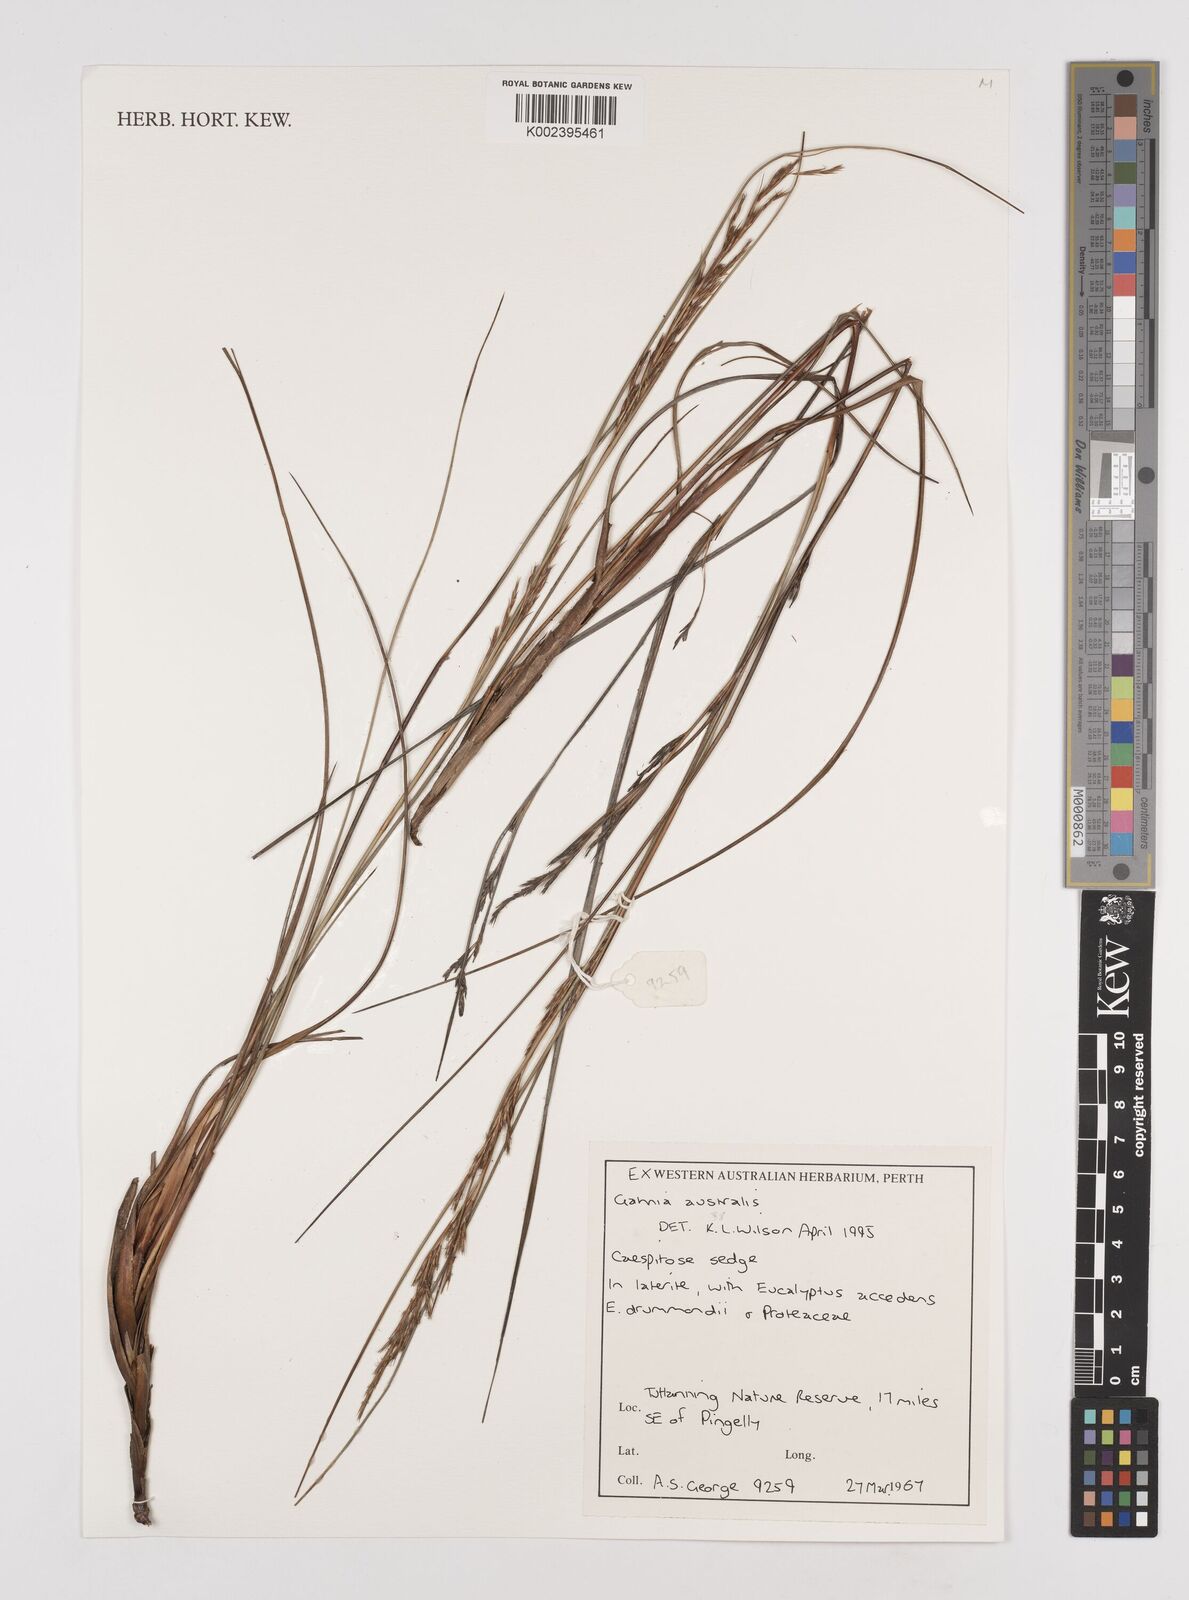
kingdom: Plantae
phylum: Tracheophyta
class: Liliopsida
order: Poales
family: Cyperaceae
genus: Lepidosperma
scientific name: Lepidosperma australe
